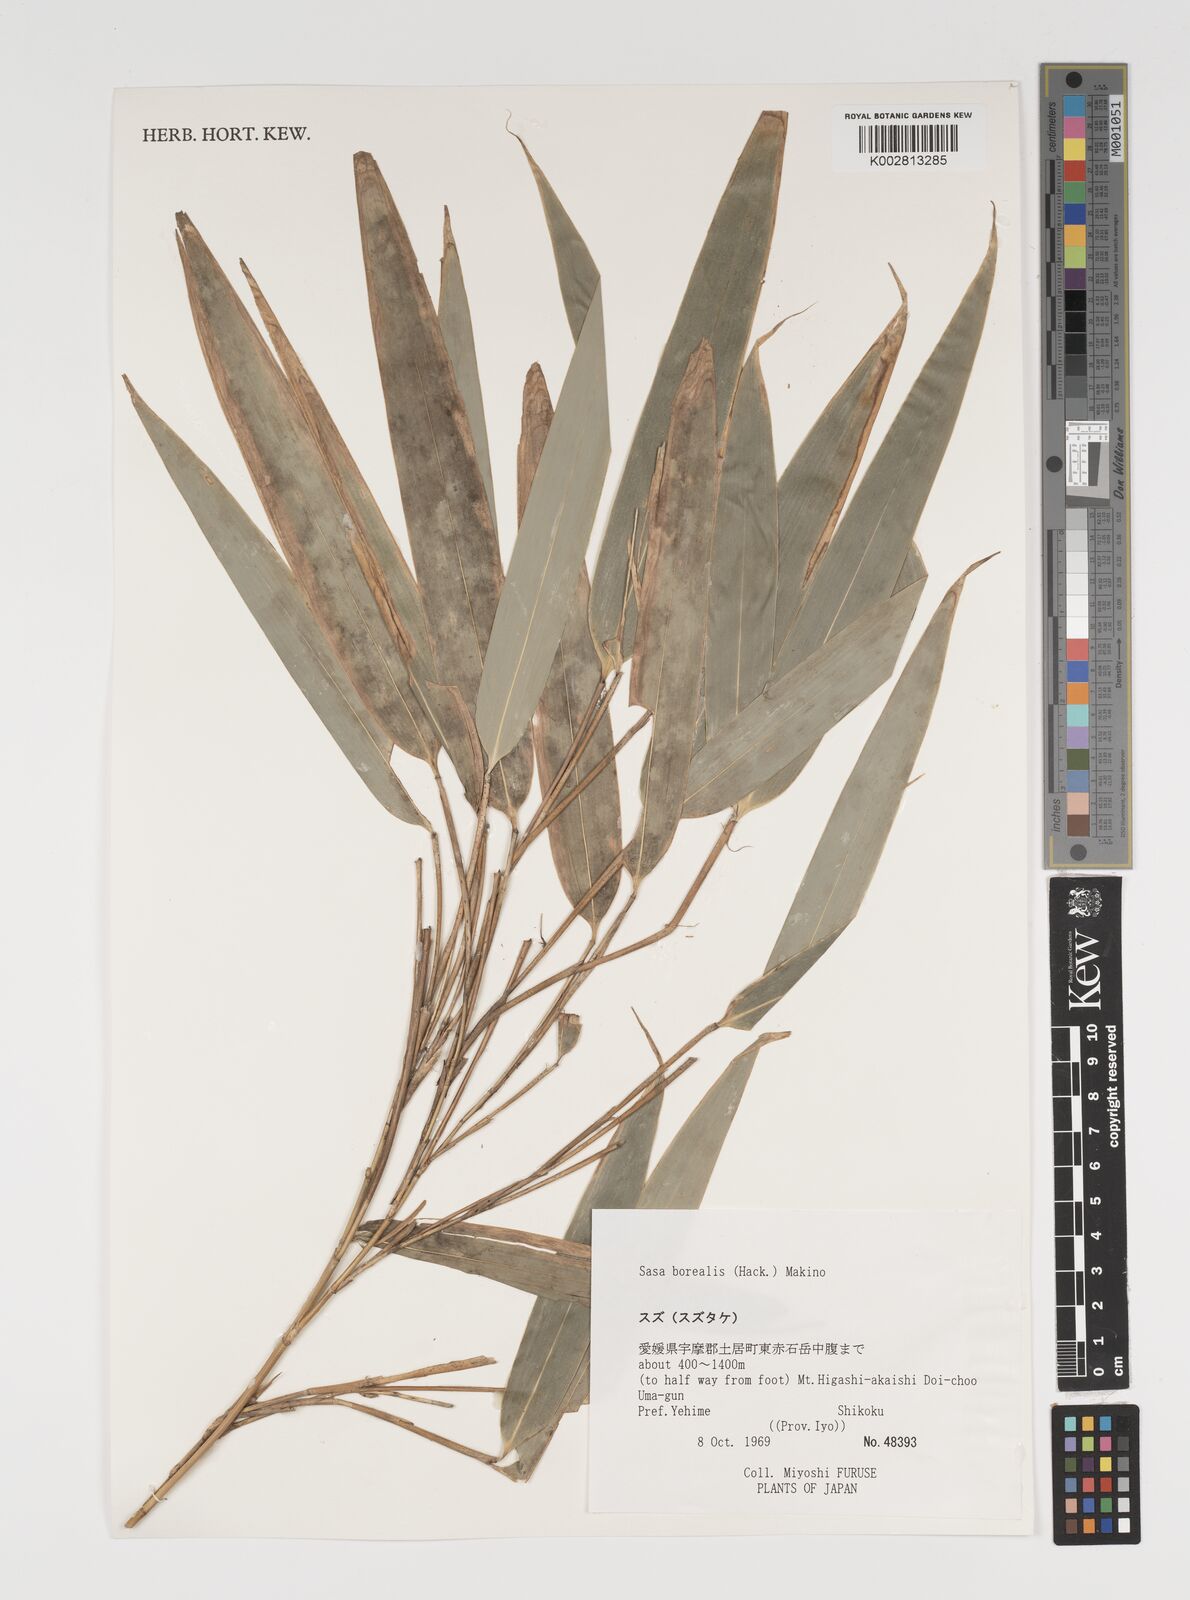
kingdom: Plantae
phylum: Tracheophyta
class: Liliopsida
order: Poales
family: Poaceae
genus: Sasamorpha
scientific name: Sasamorpha borealis
